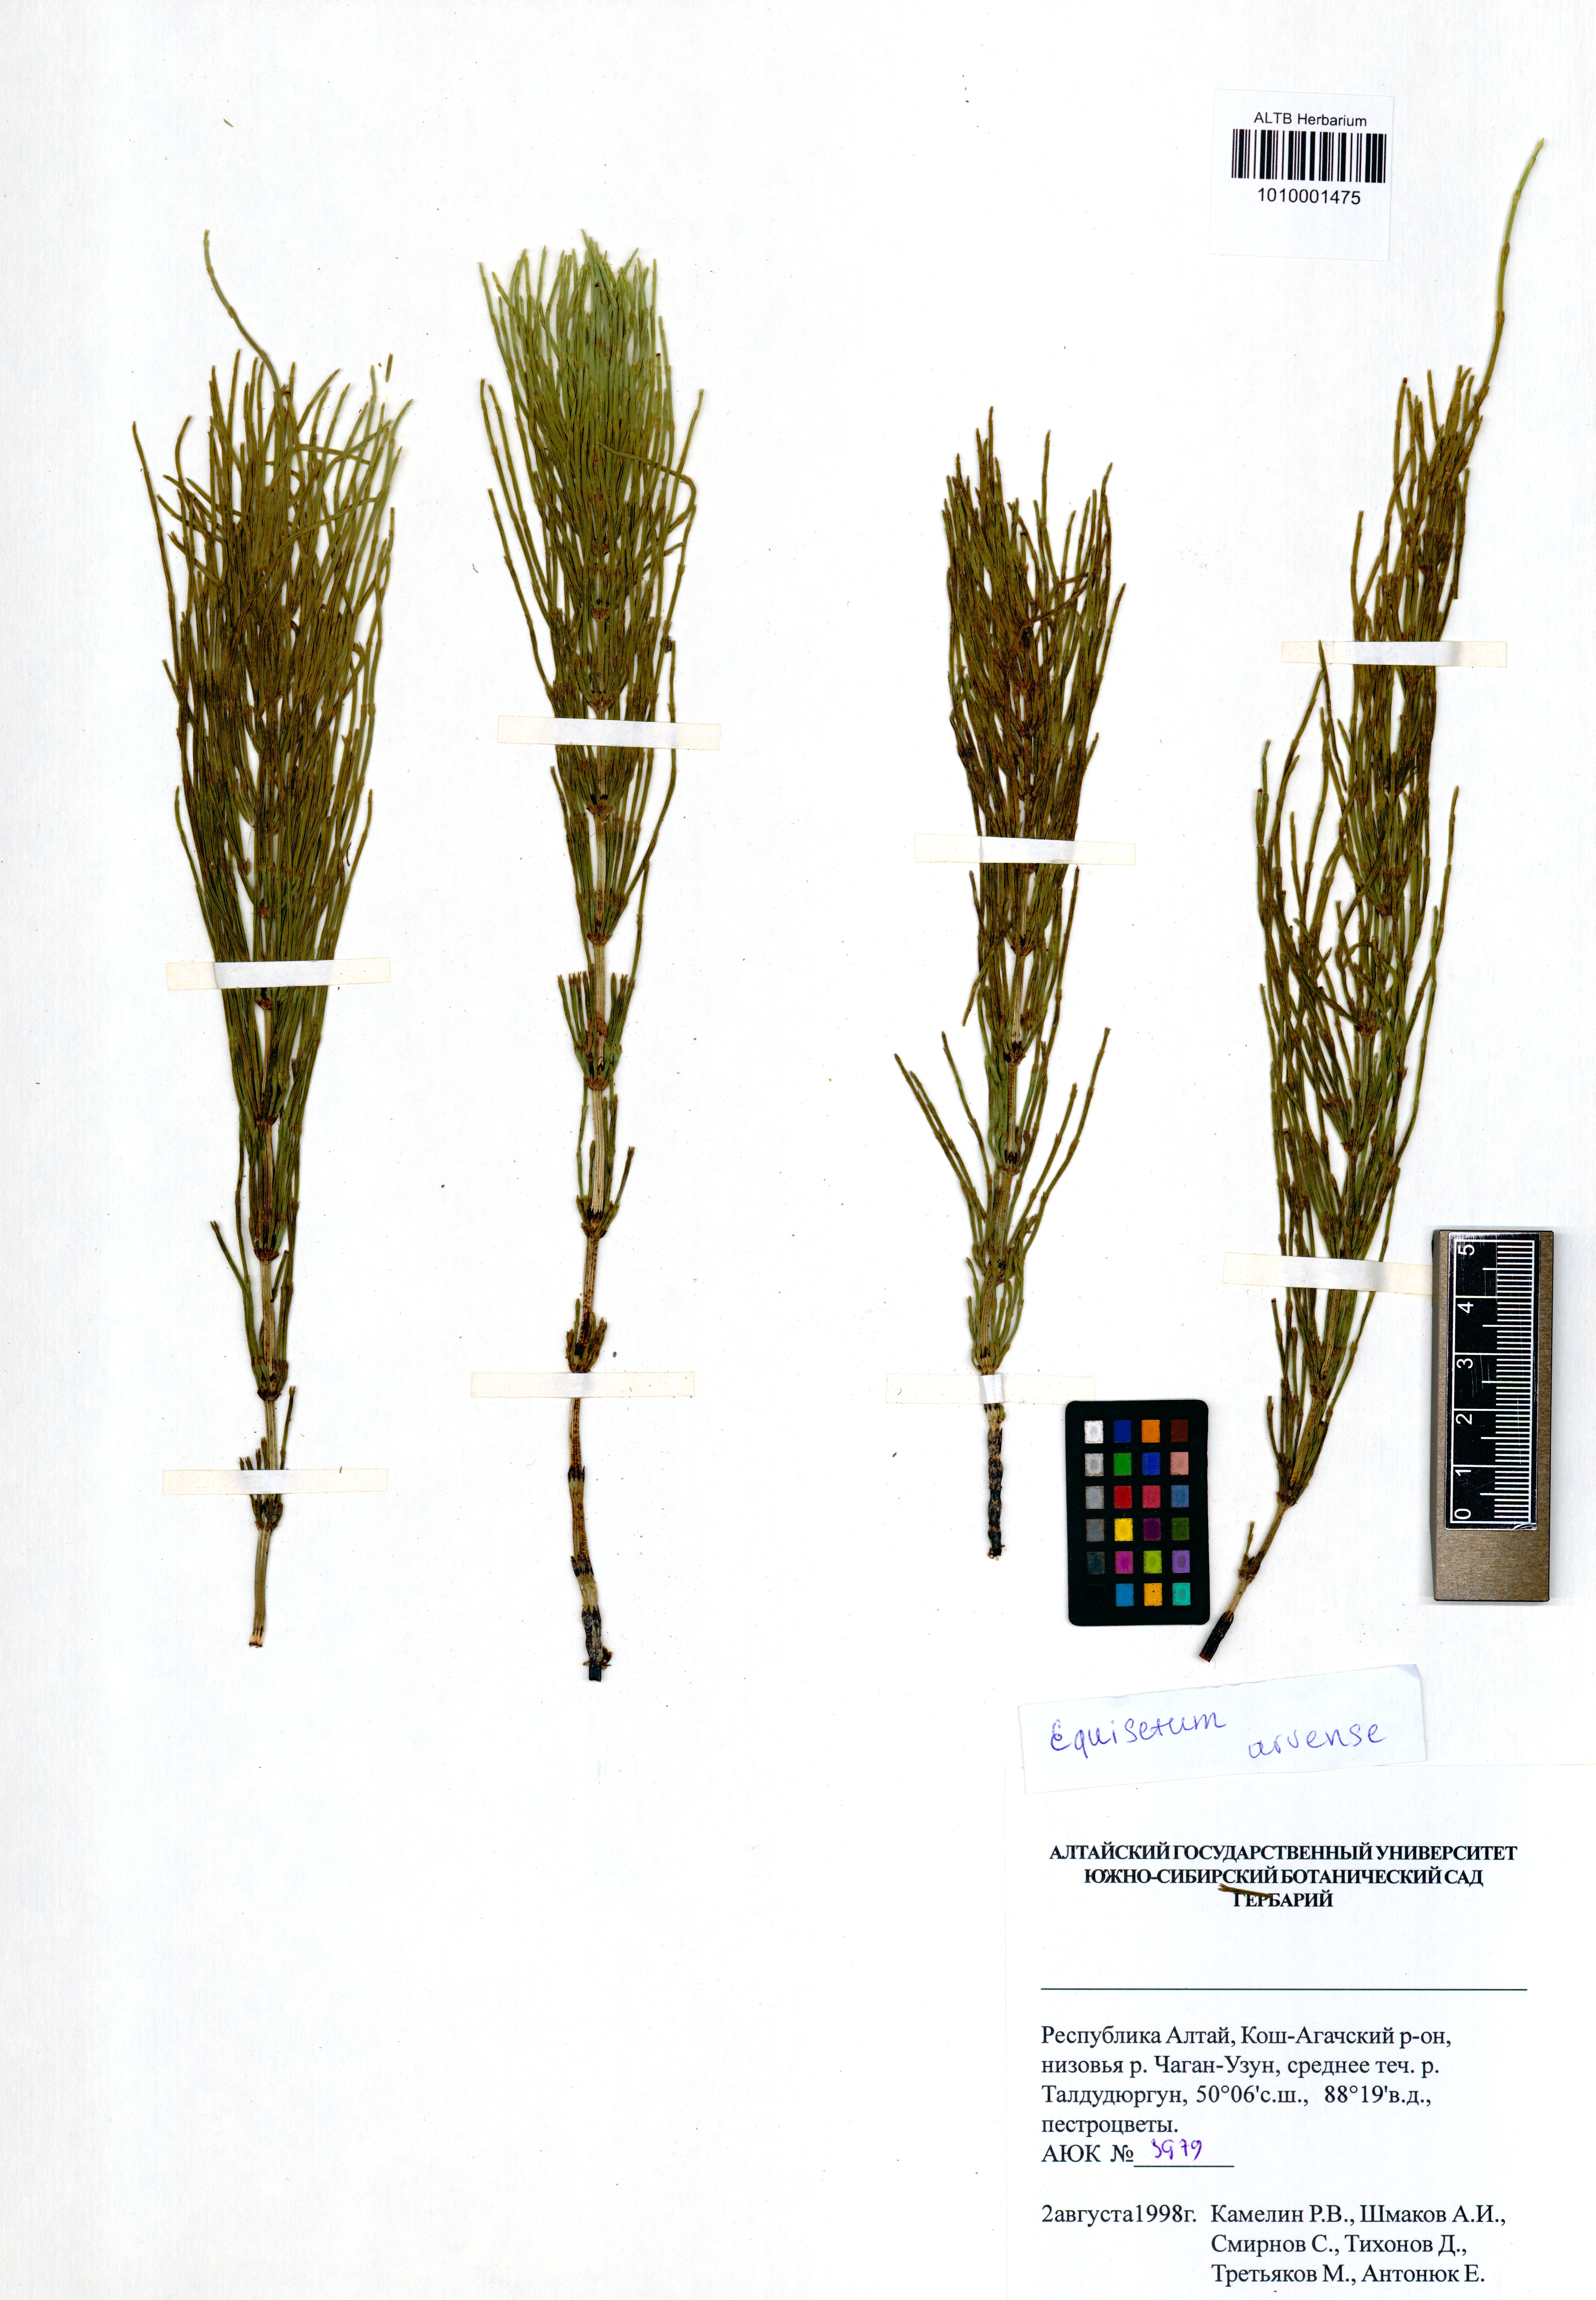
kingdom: Plantae
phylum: Tracheophyta
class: Polypodiopsida
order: Equisetales
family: Equisetaceae
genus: Equisetum
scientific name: Equisetum arvense
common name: Field horsetail
